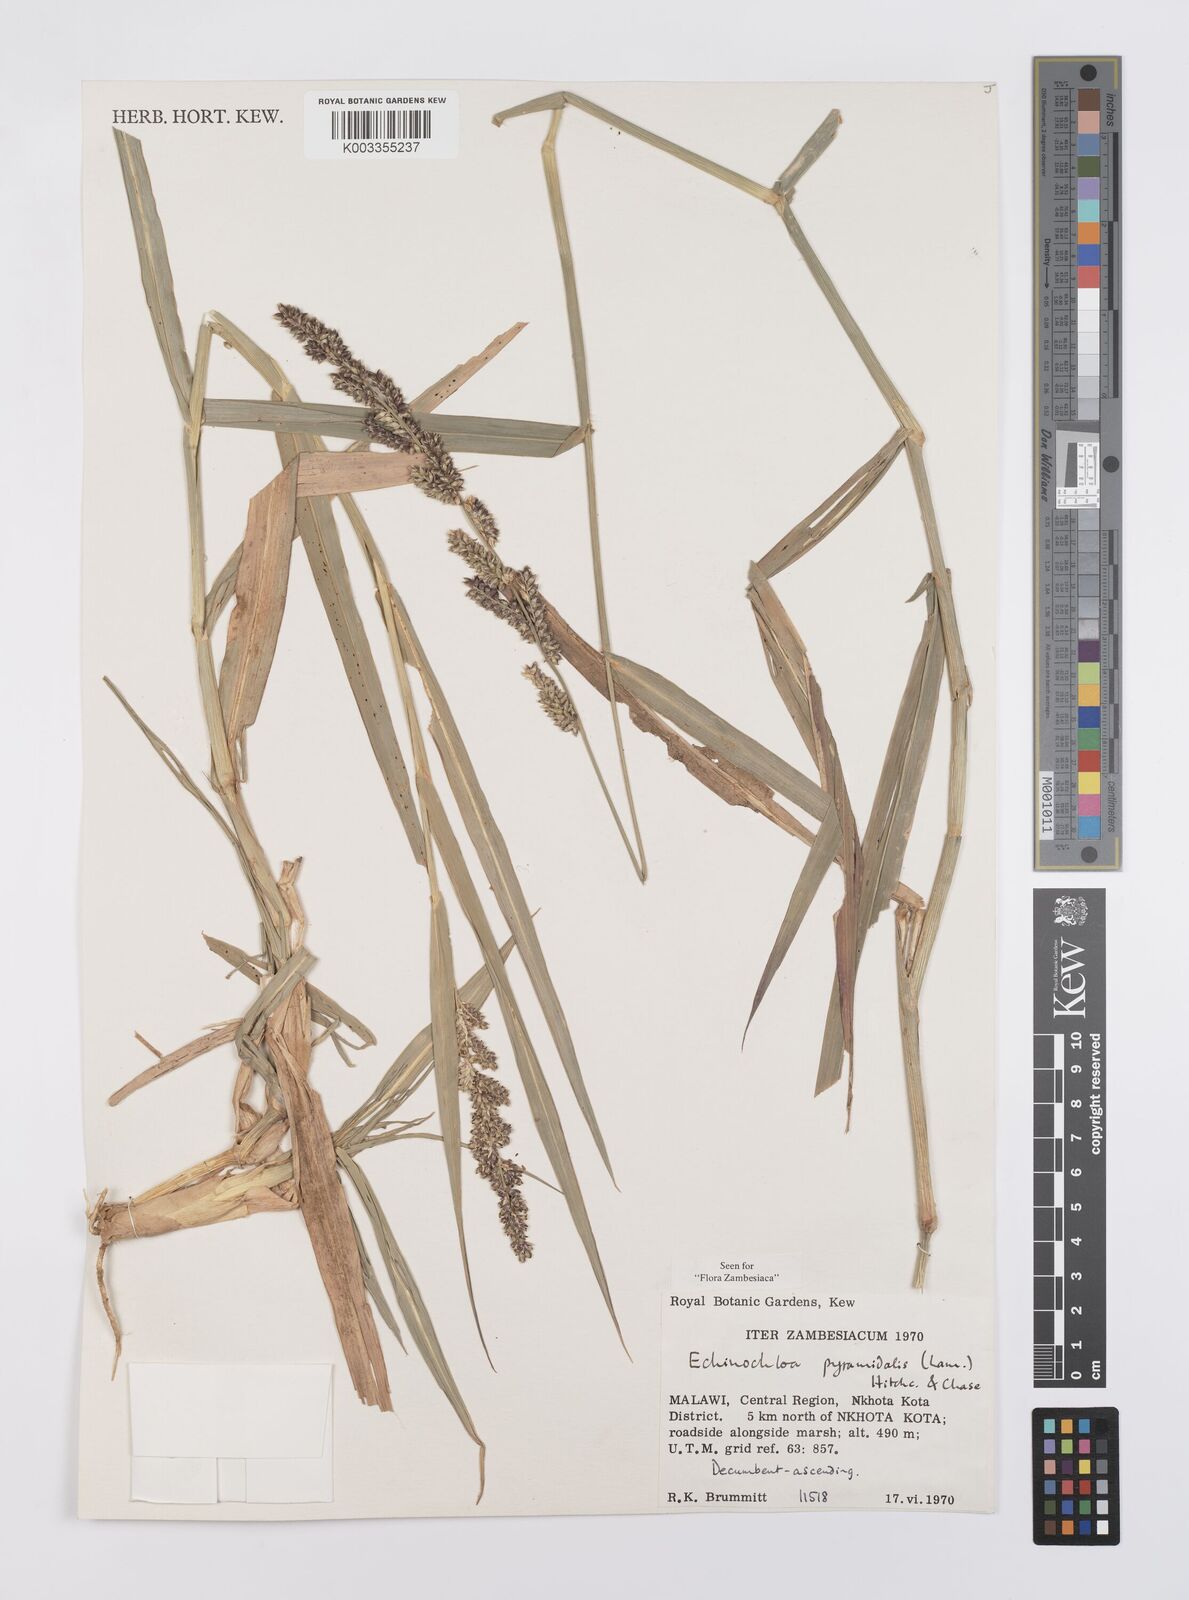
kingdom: Plantae
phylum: Tracheophyta
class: Liliopsida
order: Poales
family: Poaceae
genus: Echinochloa
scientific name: Echinochloa pyramidalis
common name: Antelope grass
